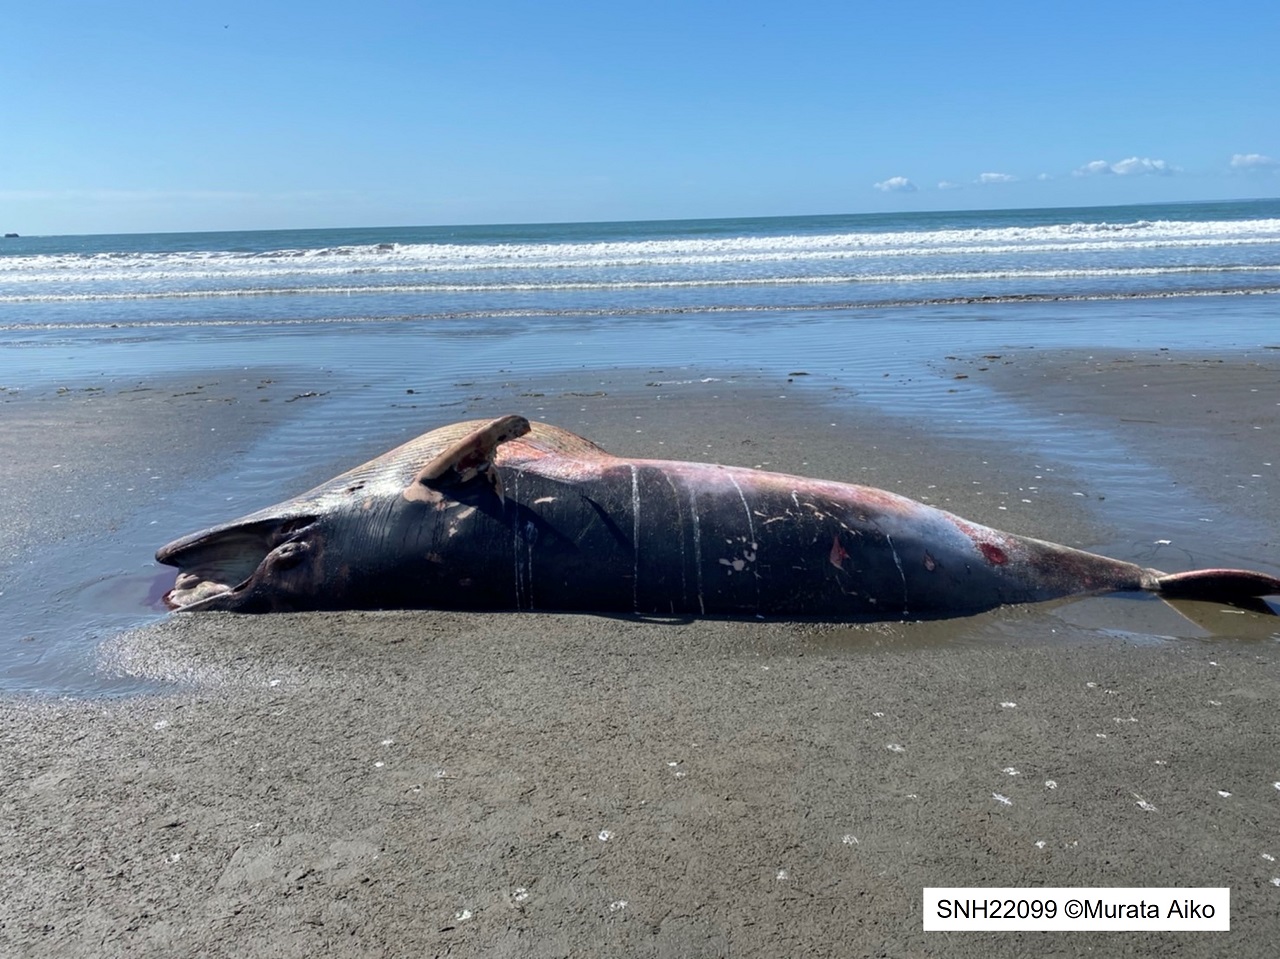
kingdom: Animalia
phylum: Chordata
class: Mammalia
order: Cetacea
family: Balaenopteridae
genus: Balaenoptera
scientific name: Balaenoptera acutorostrata
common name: Minke whale
